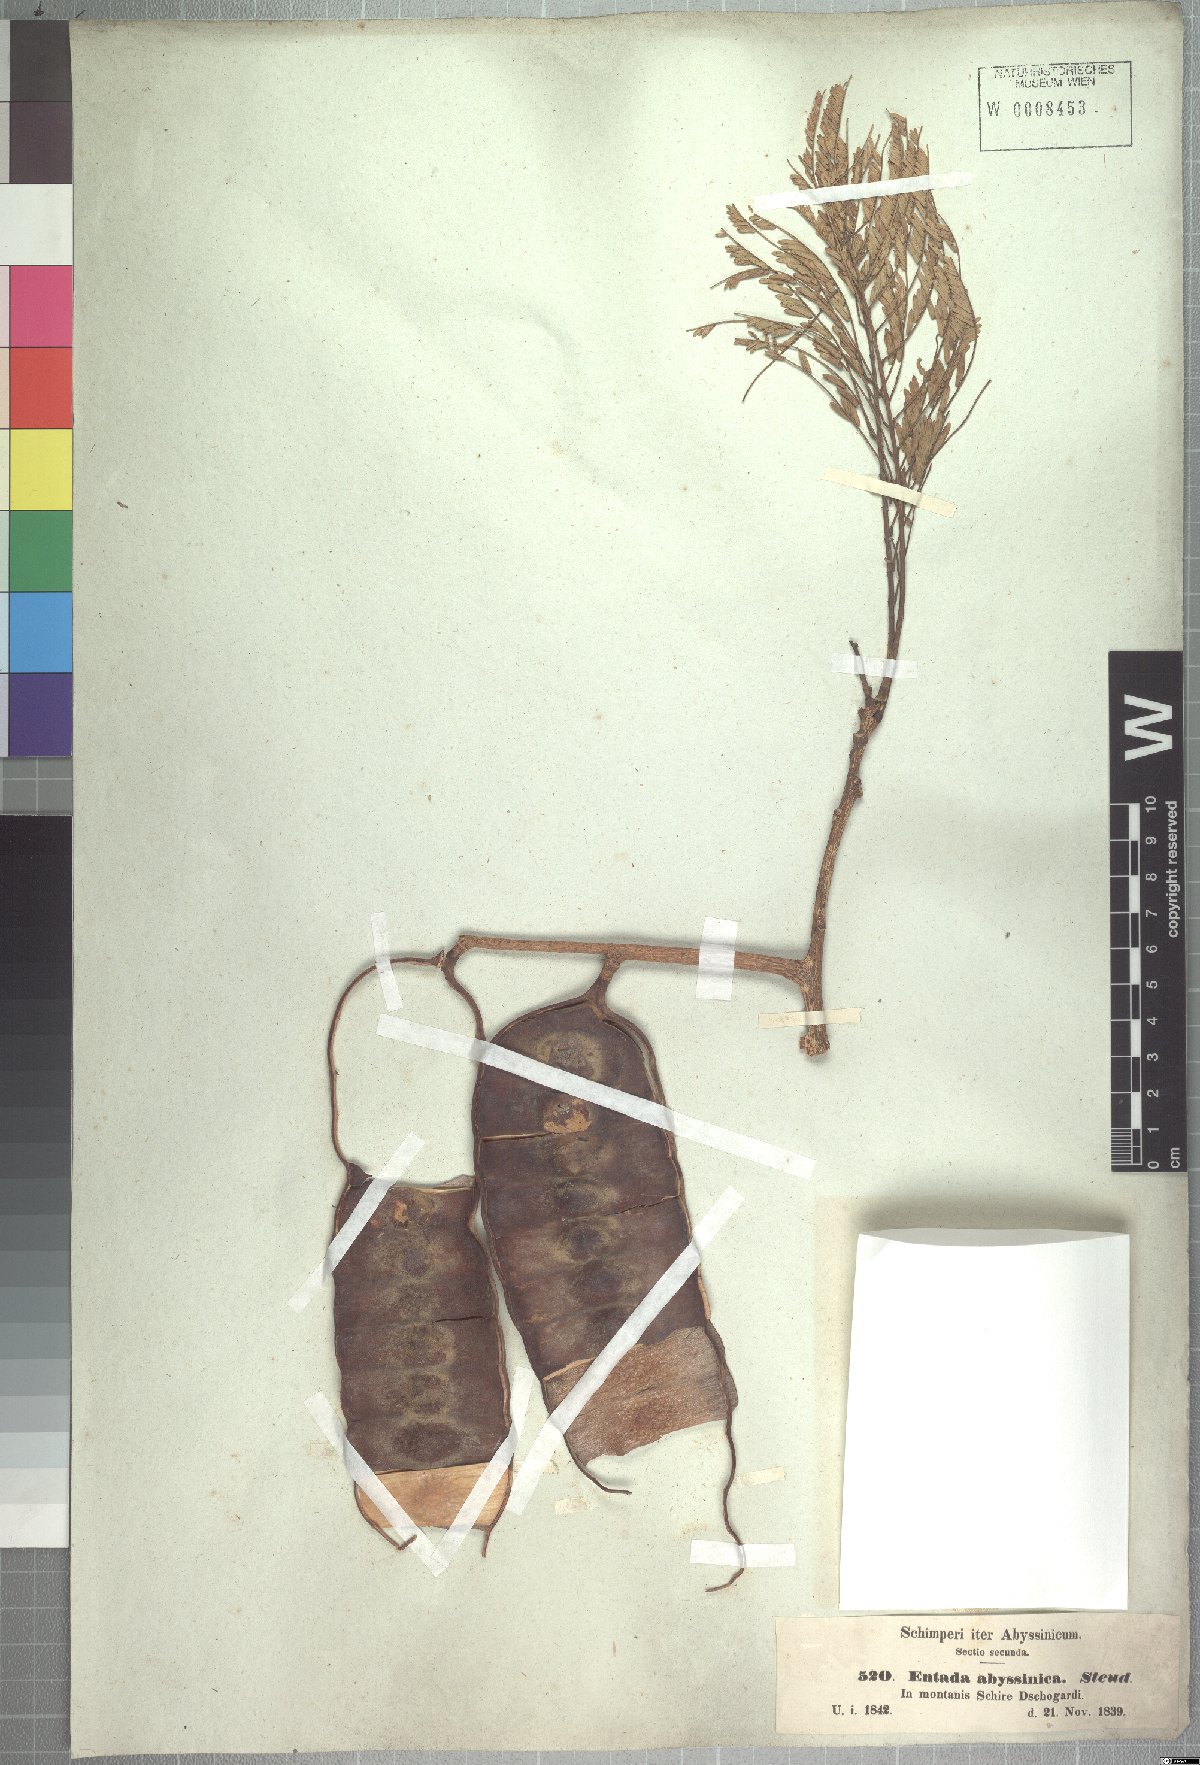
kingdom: Plantae
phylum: Tracheophyta
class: Magnoliopsida
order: Fabales
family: Fabaceae
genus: Entada
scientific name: Entada abyssinica
